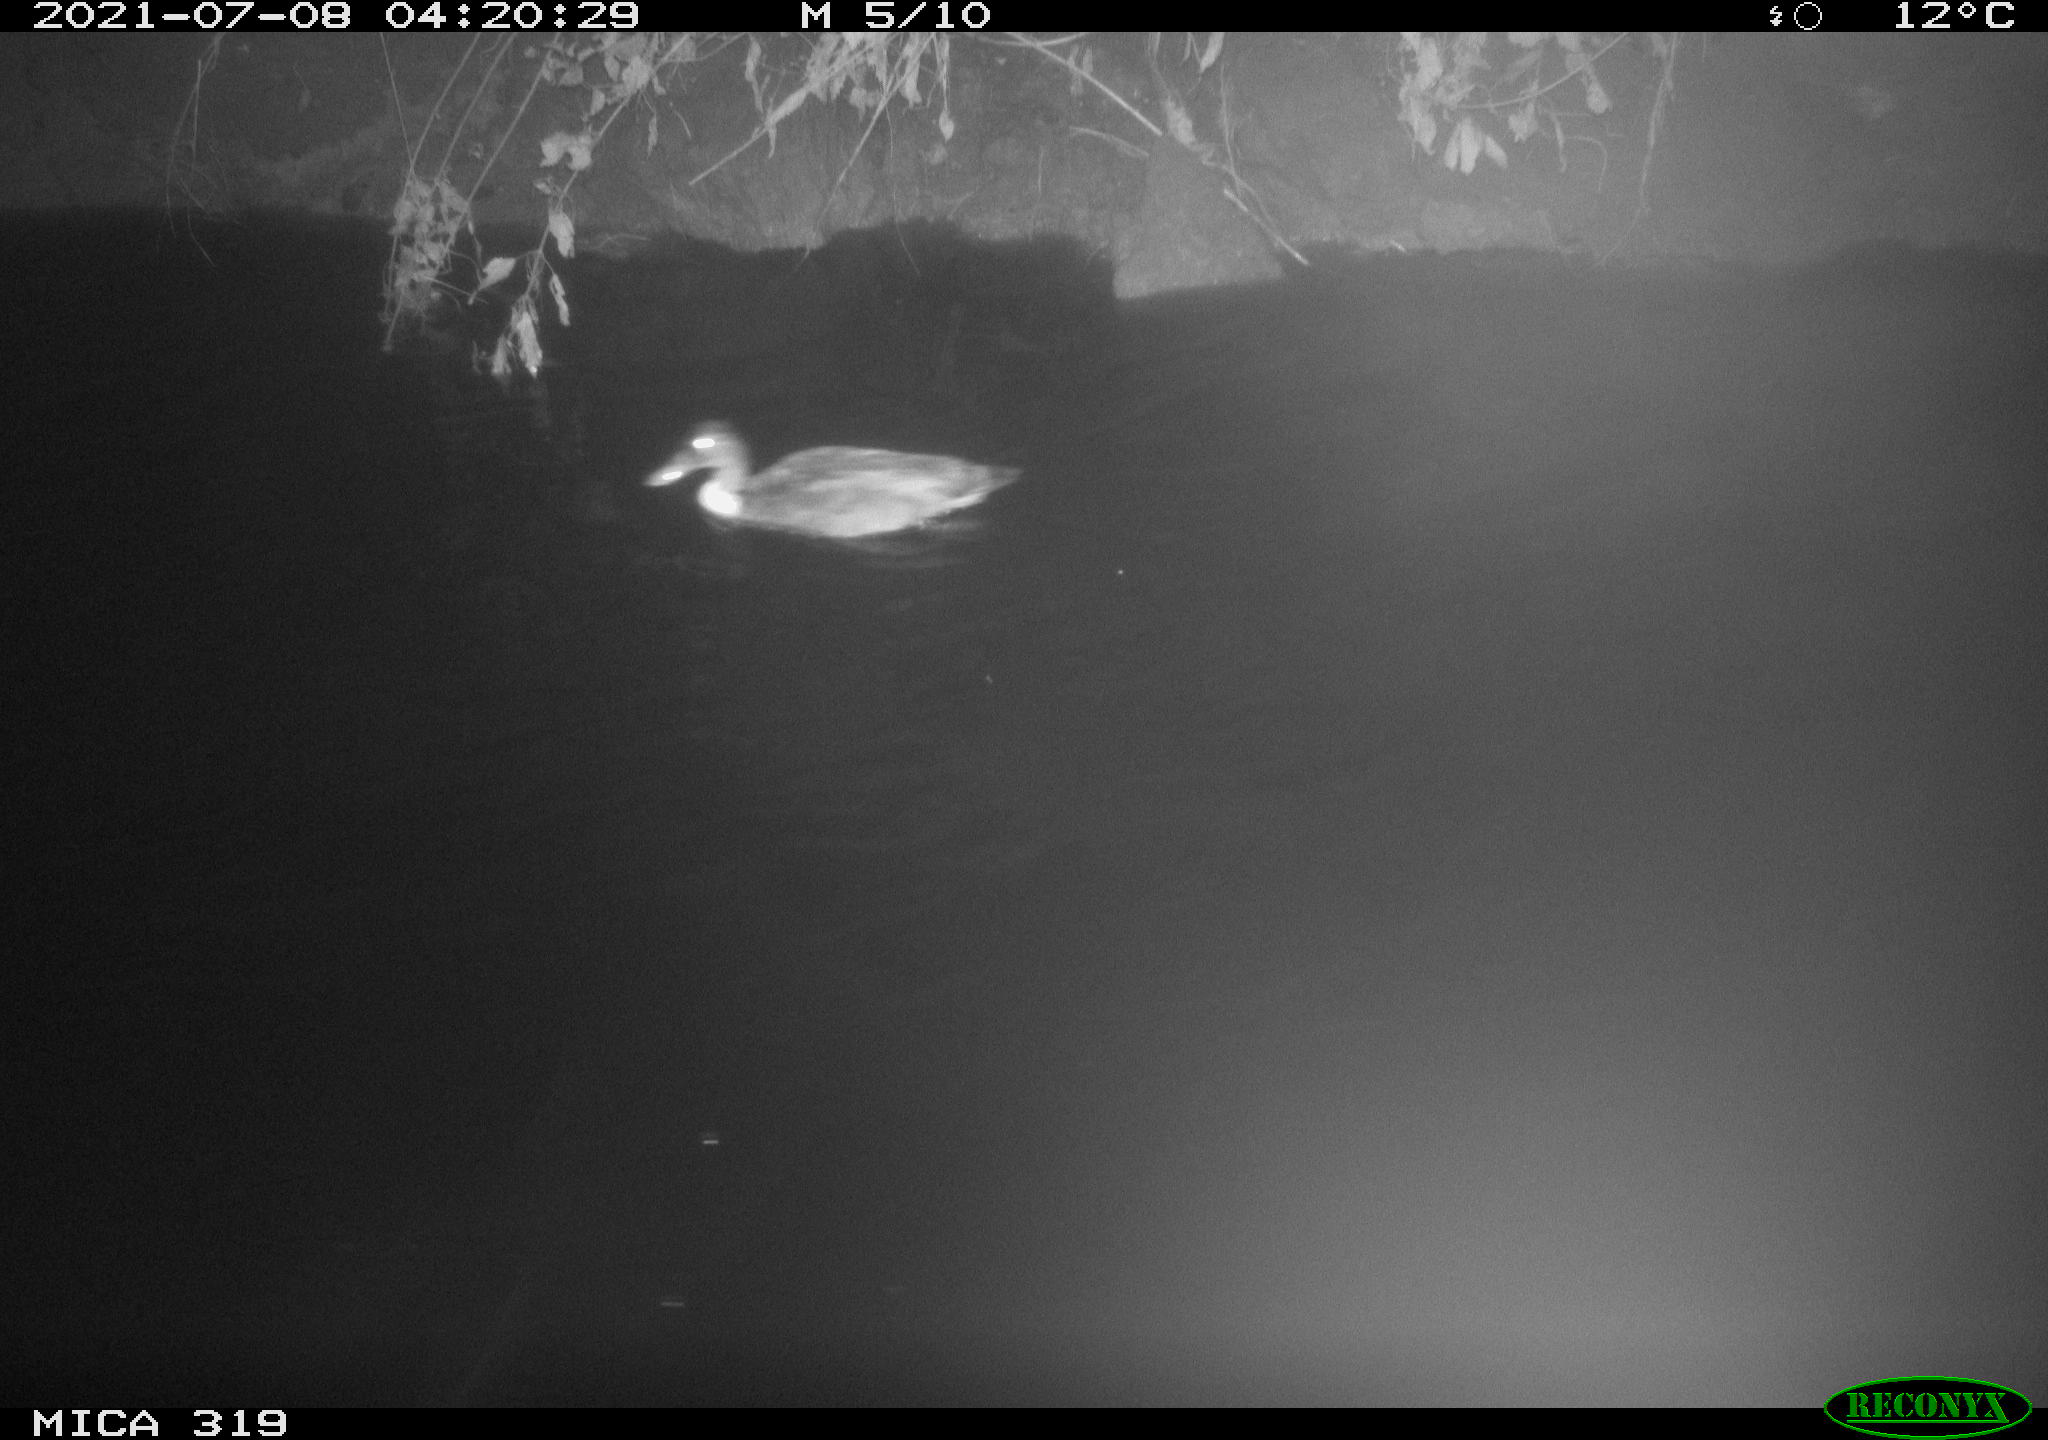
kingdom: Animalia
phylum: Chordata
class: Aves
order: Anseriformes
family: Anatidae
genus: Anas
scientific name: Anas platyrhynchos
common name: Mallard
